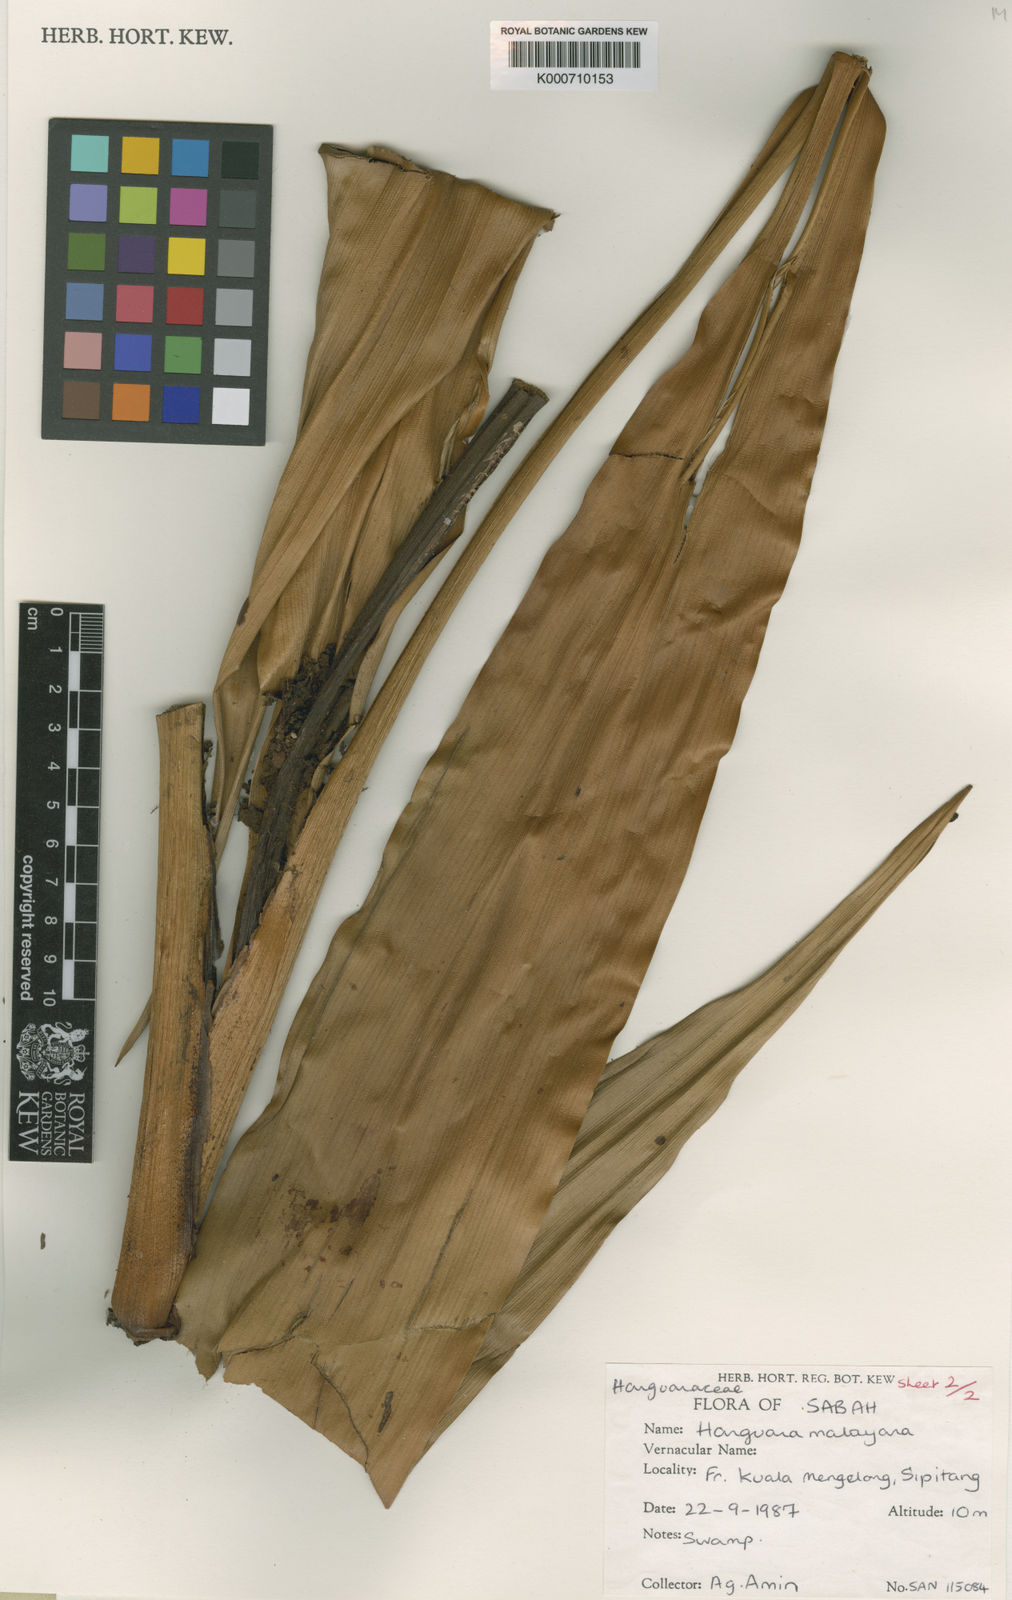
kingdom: Plantae
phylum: Tracheophyta
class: Liliopsida
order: Commelinales
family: Hanguanaceae
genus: Hanguana
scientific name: Hanguana malayana
